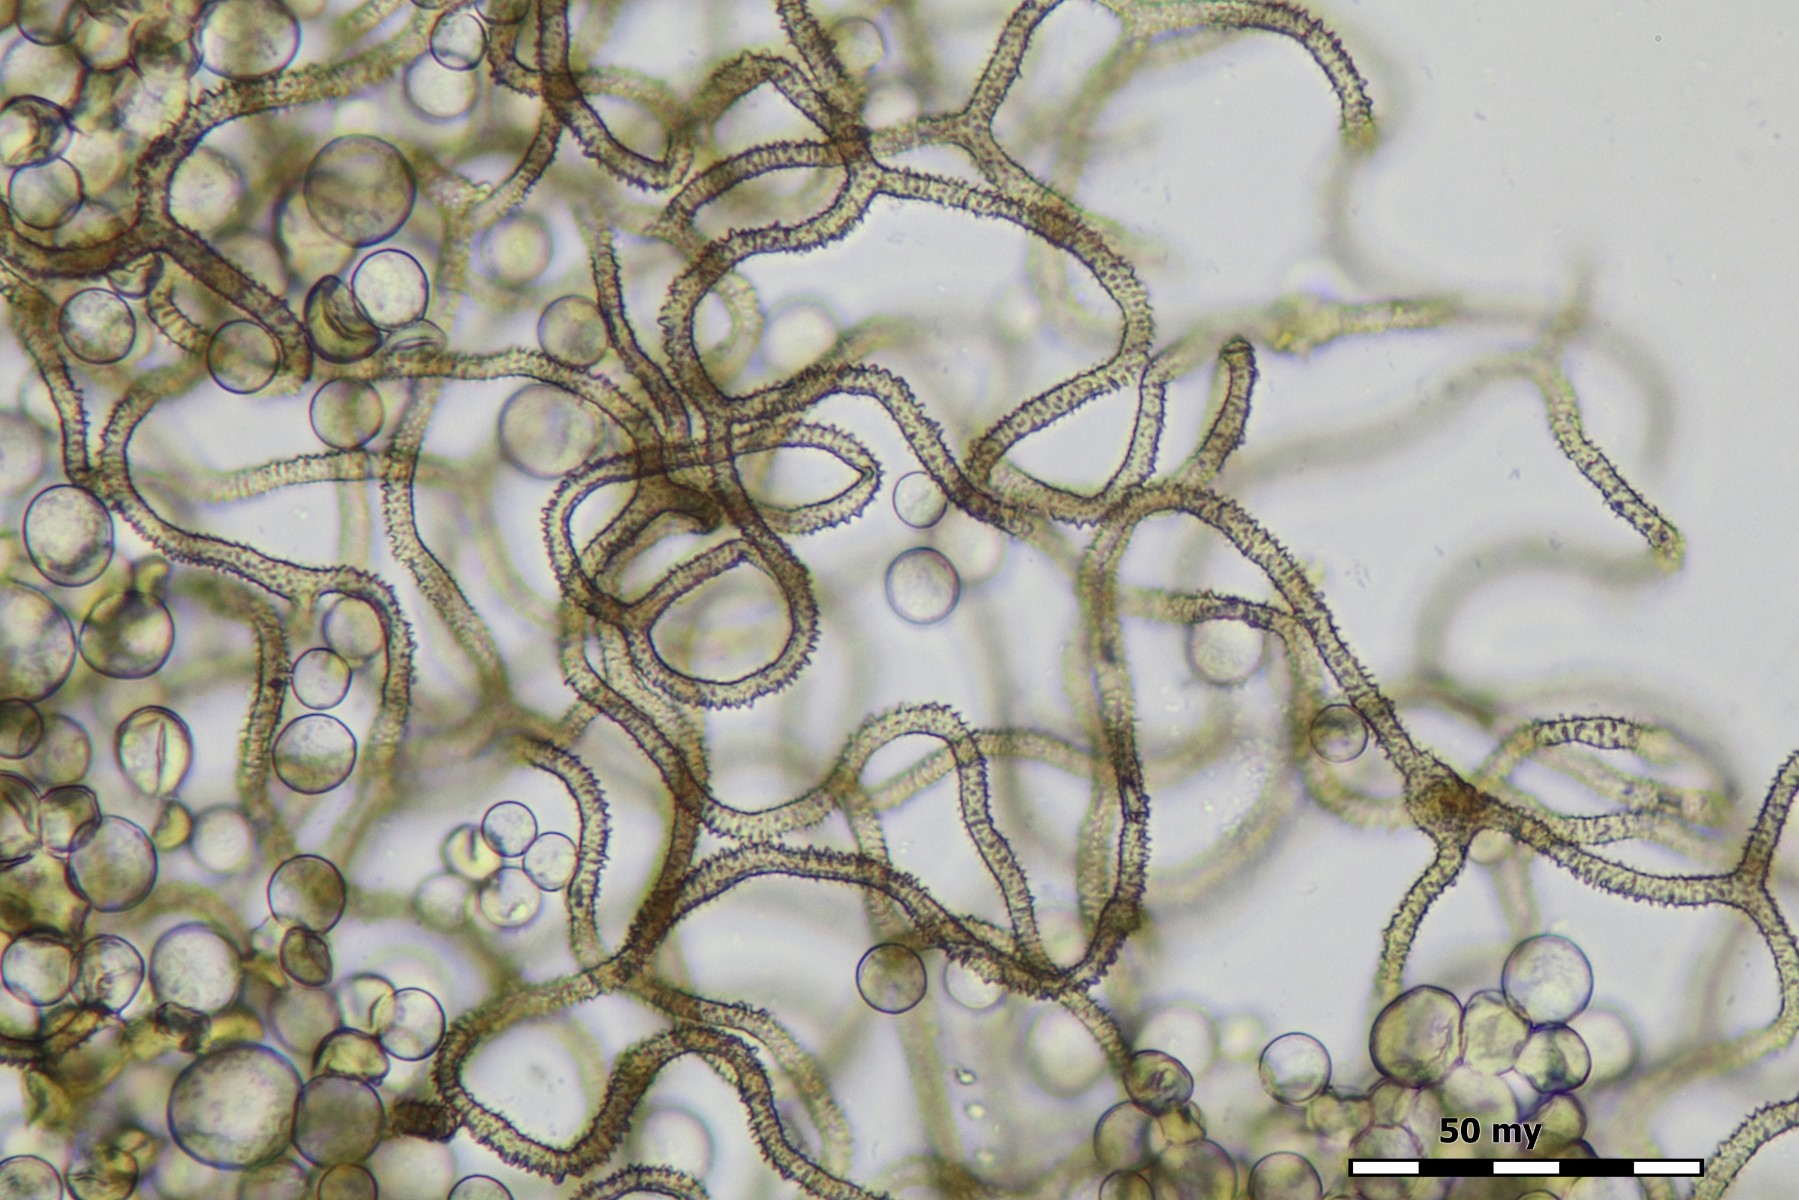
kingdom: Protozoa
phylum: Mycetozoa
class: Myxomycetes
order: Trichiales
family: Arcyriaceae
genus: Arcyria
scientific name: Arcyria cinerea
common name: White carnival candy slime mold
